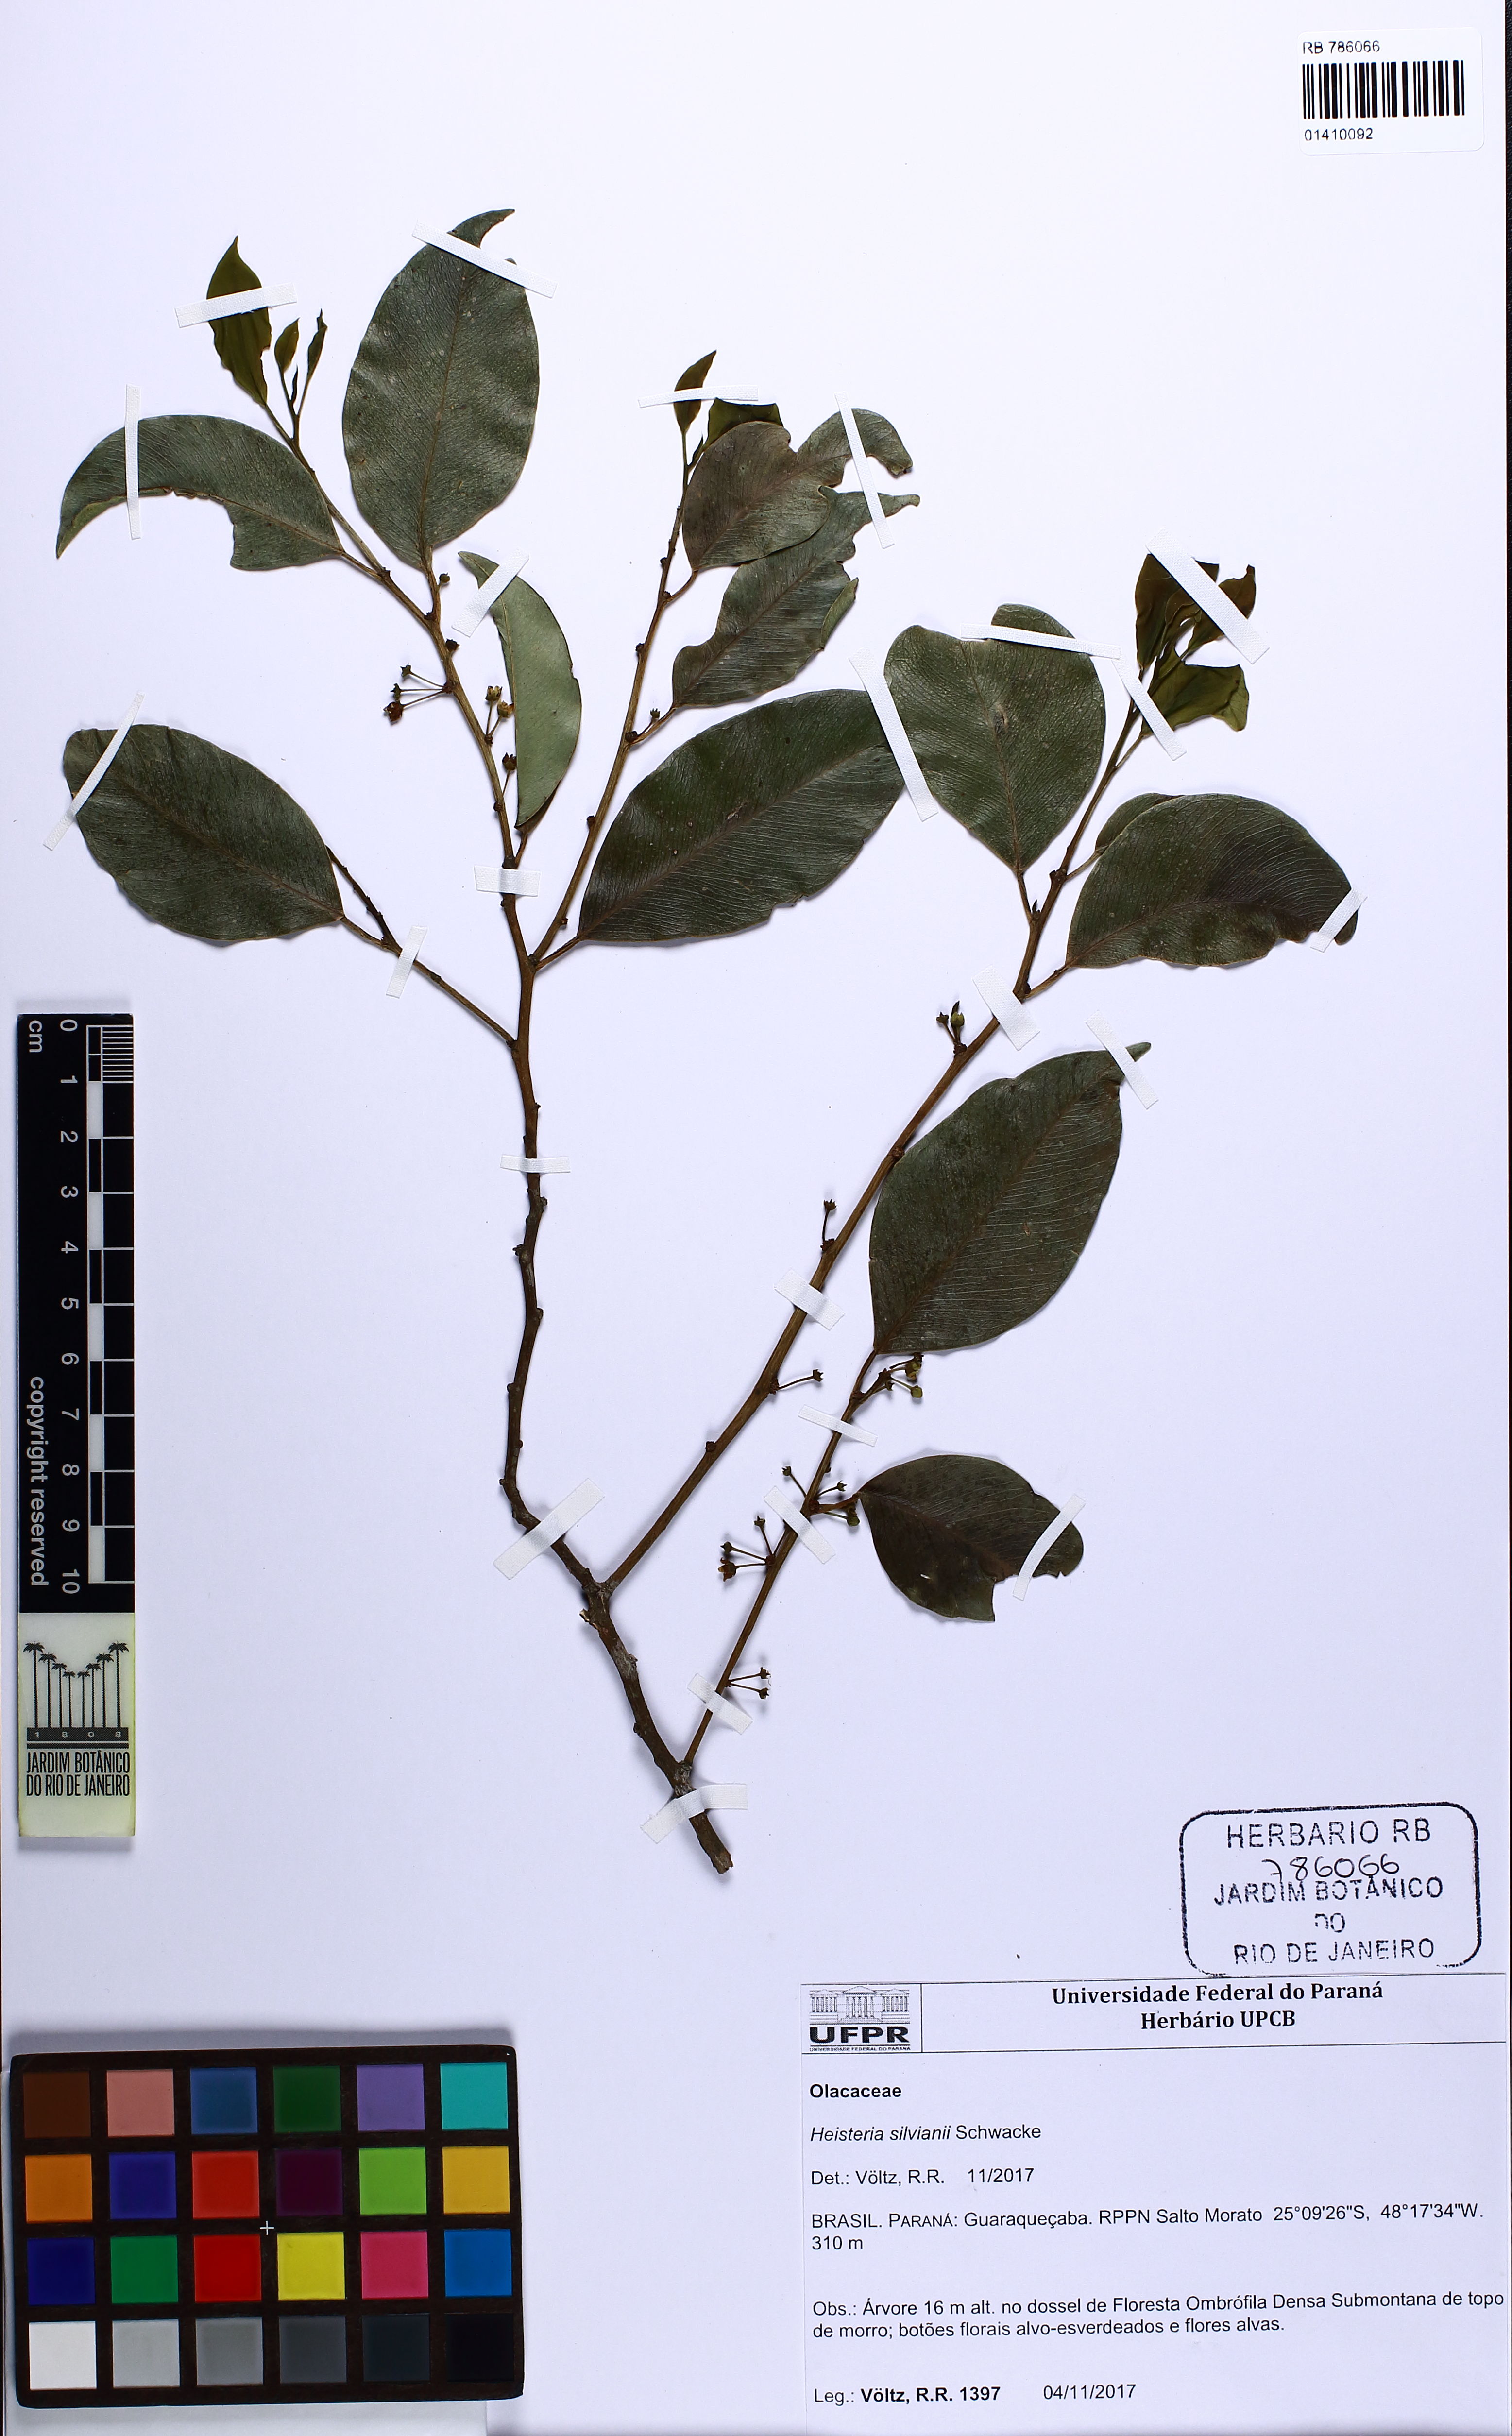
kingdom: Plantae
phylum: Tracheophyta
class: Magnoliopsida
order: Santalales
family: Erythropalaceae
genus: Heisteria
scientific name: Heisteria silvianii
